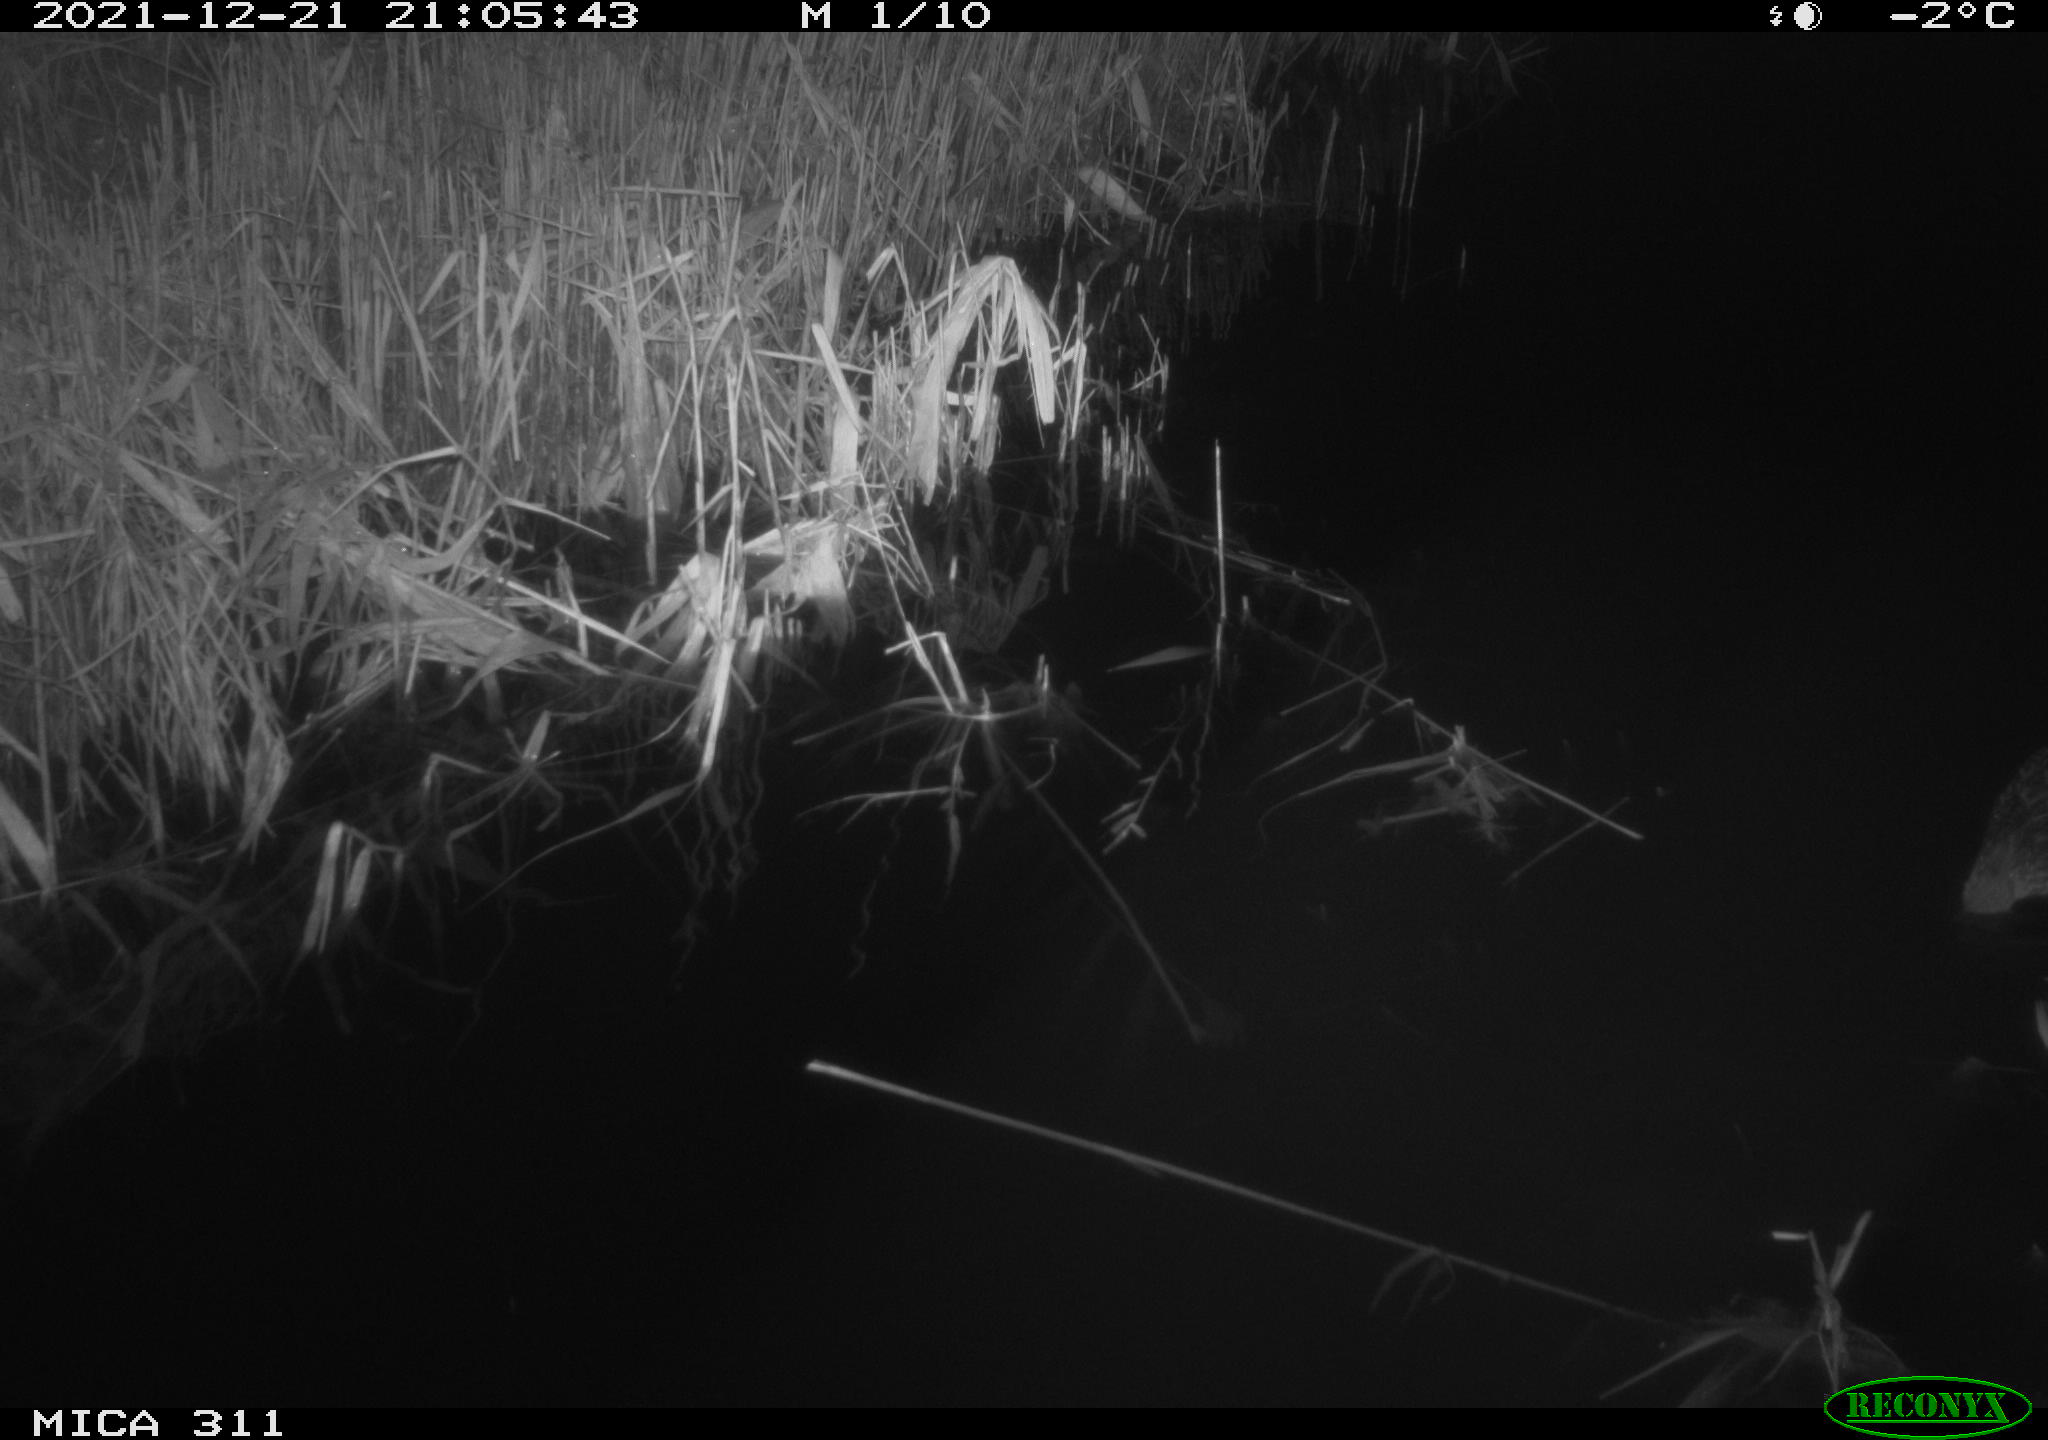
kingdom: Animalia
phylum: Chordata
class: Aves
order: Anseriformes
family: Anatidae
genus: Anas
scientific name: Anas platyrhynchos
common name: Mallard
